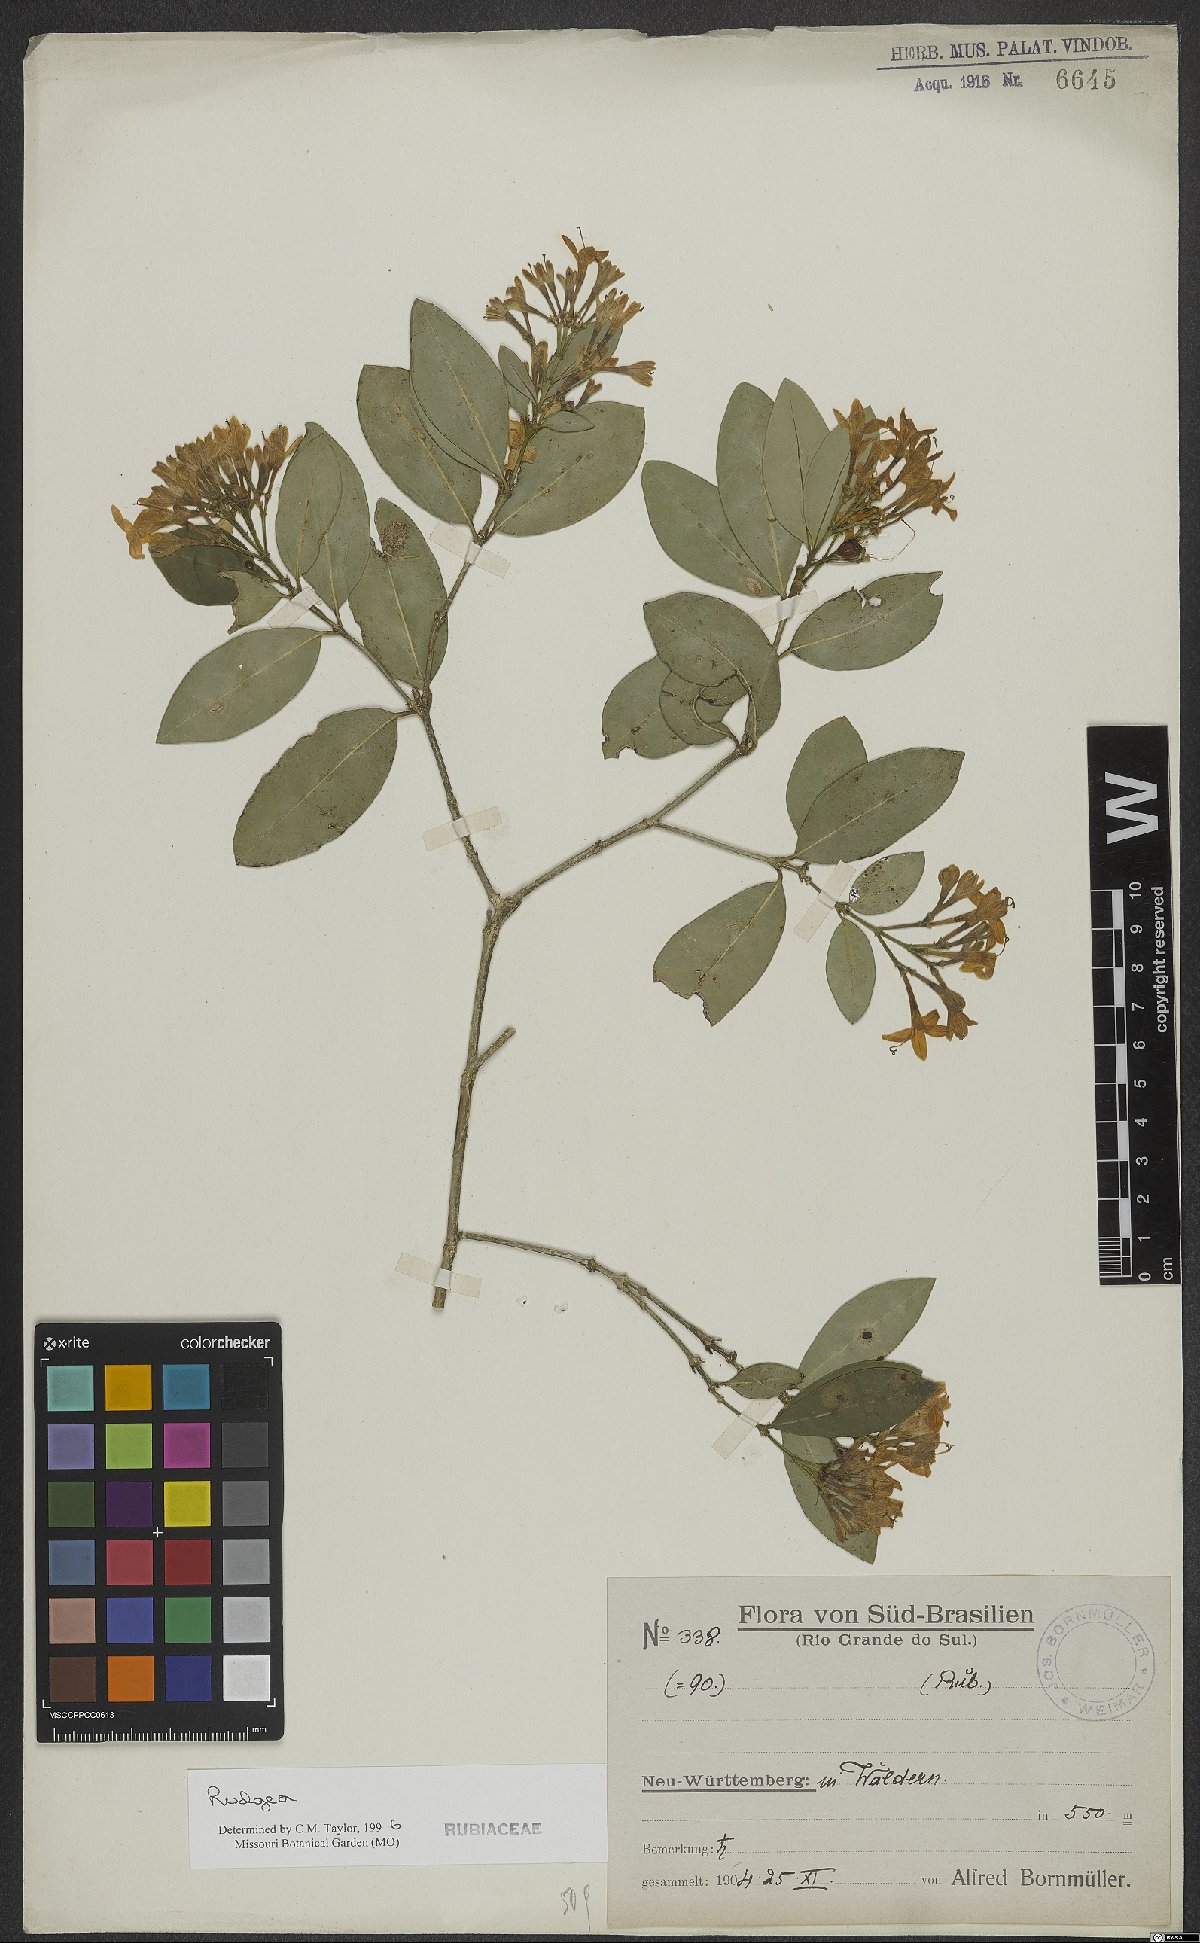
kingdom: Plantae
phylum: Tracheophyta
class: Magnoliopsida
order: Gentianales
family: Rubiaceae
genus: Rudgea
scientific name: Rudgea
